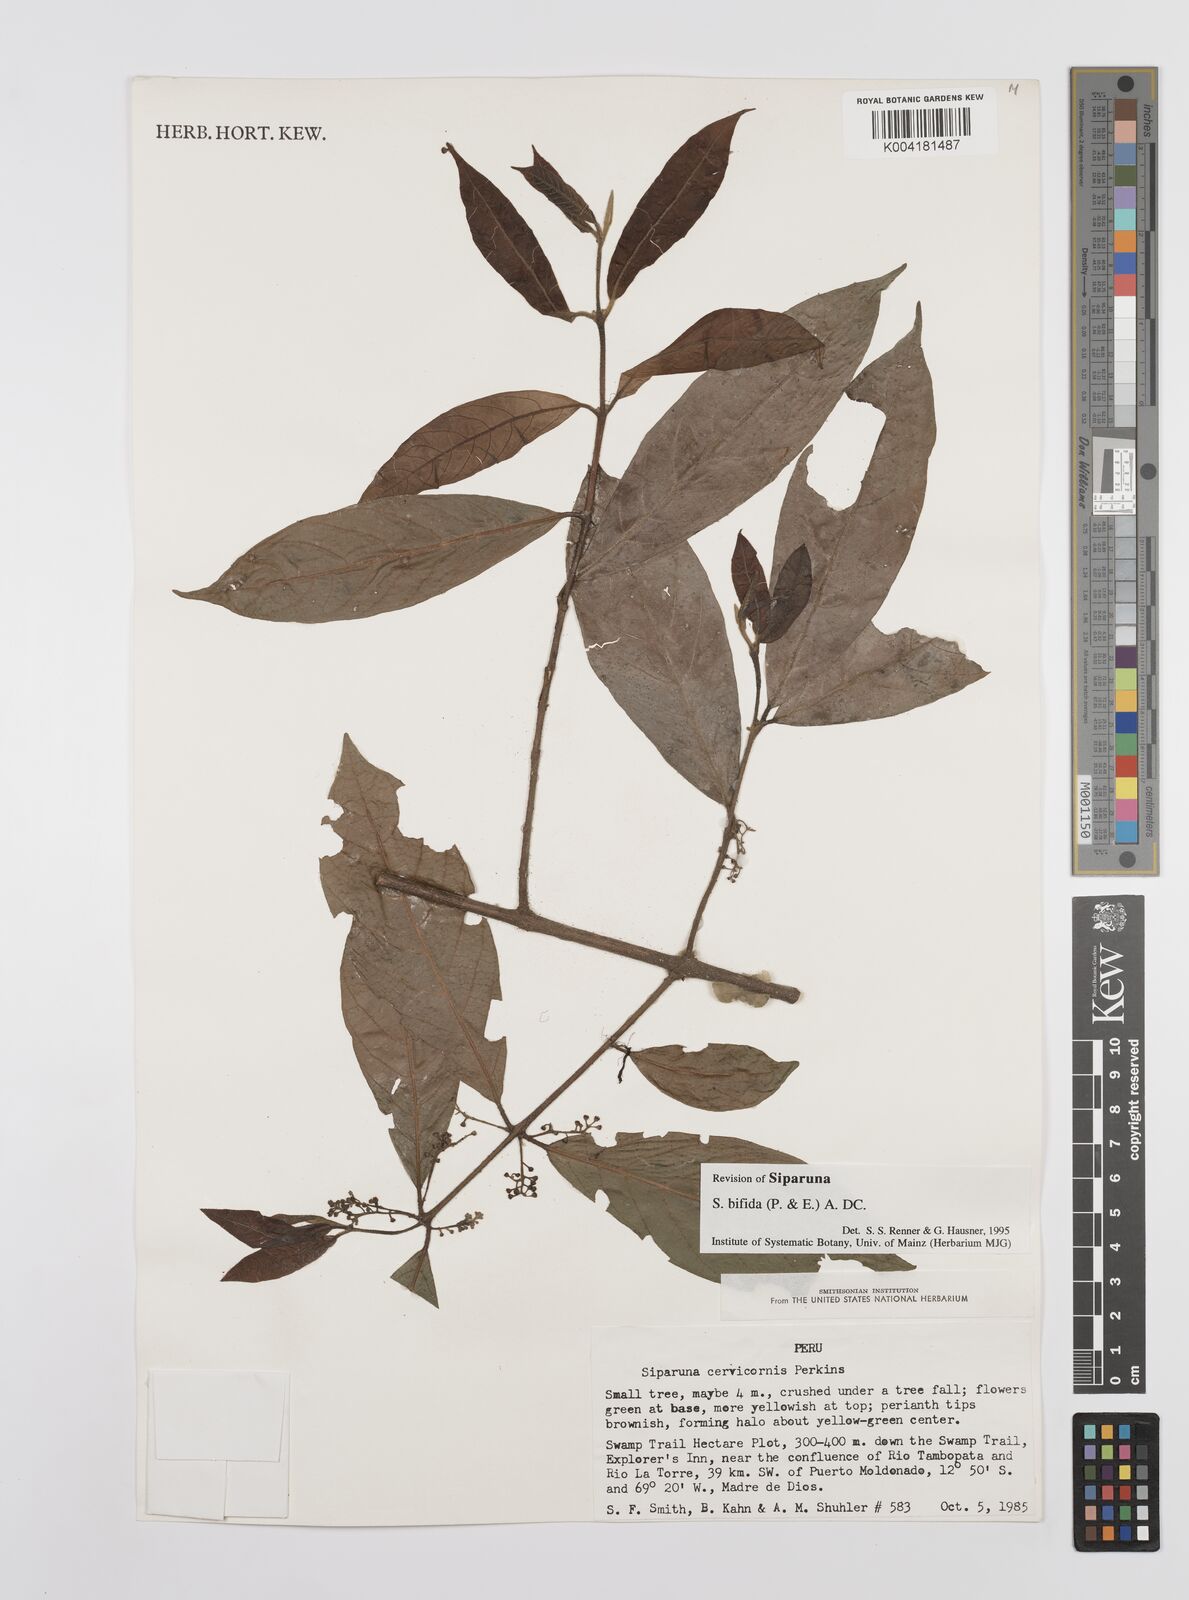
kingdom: Plantae
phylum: Tracheophyta
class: Magnoliopsida
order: Laurales
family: Siparunaceae
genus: Siparuna
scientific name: Siparuna bifida
